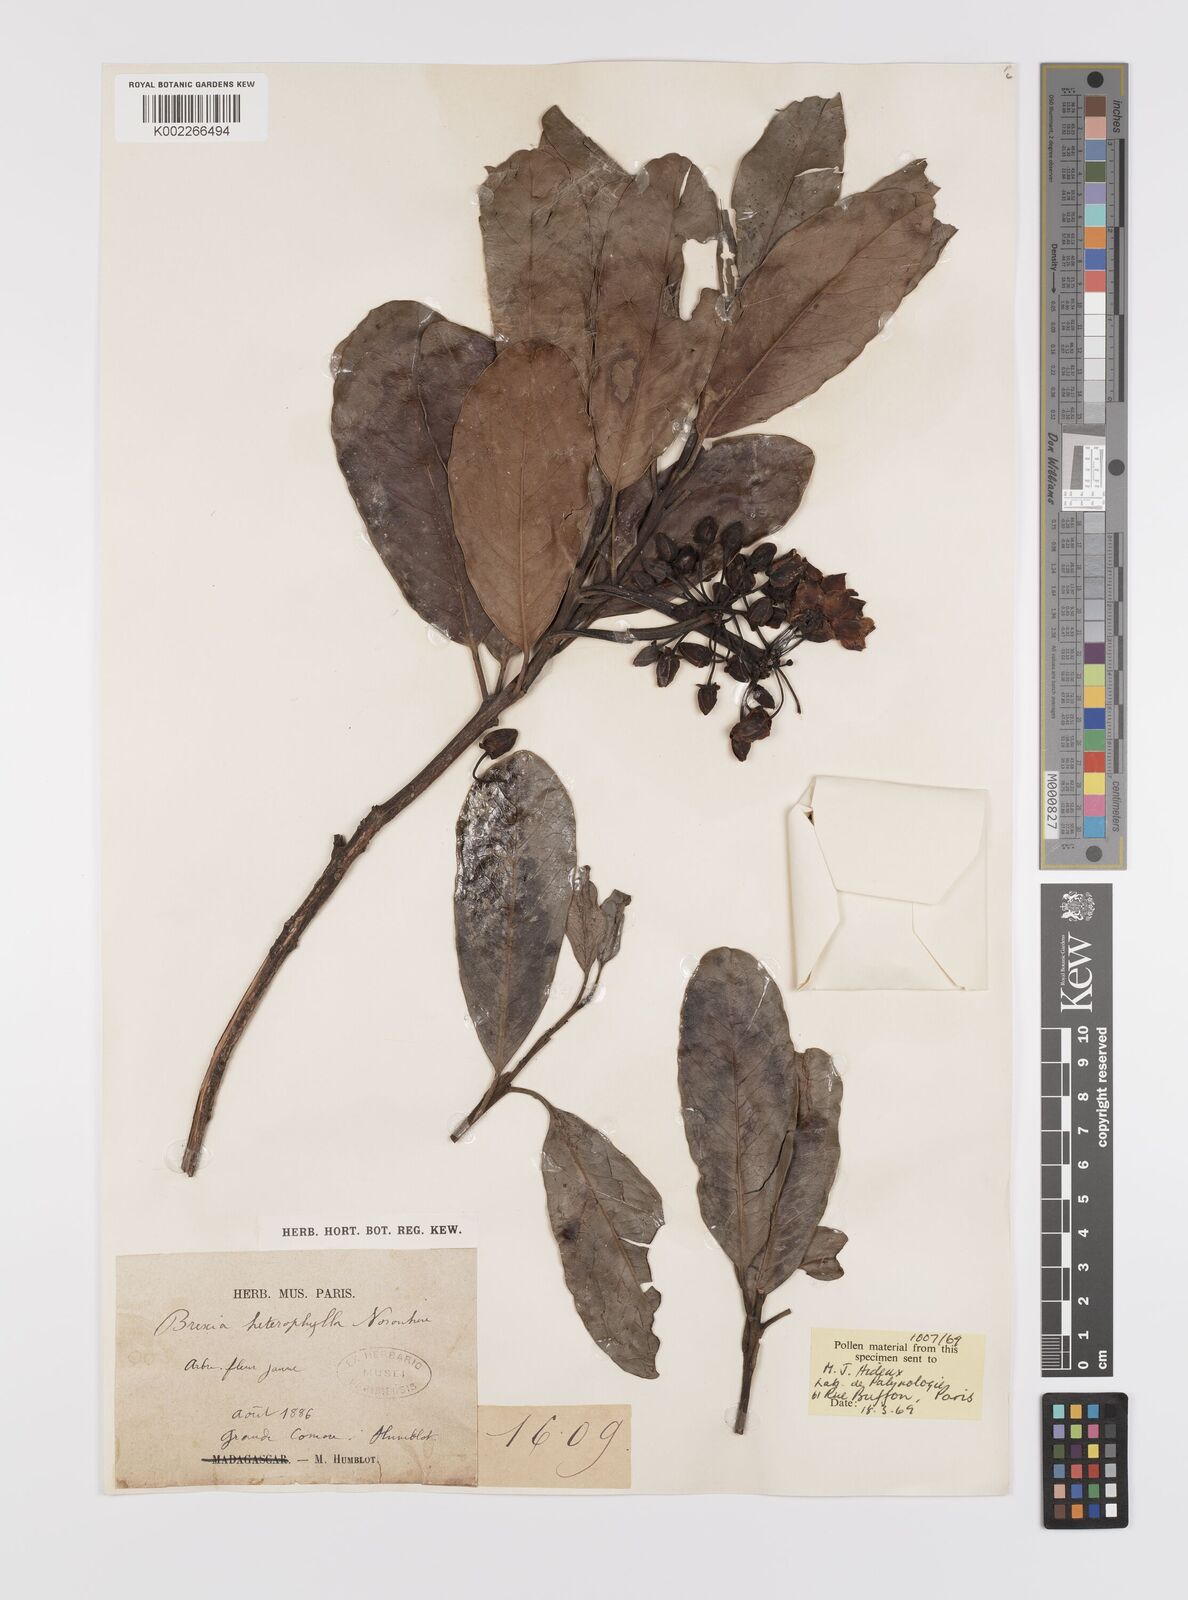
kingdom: Plantae
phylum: Tracheophyta
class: Magnoliopsida
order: Celastrales
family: Celastraceae
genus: Brexia
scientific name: Brexia madagascariensis
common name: Brexia
